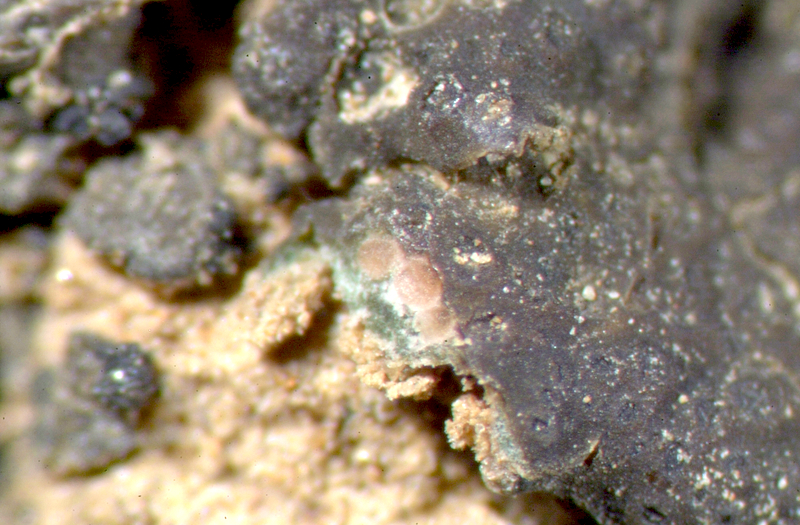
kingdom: Fungi
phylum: Ascomycota
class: Lichinomycetes
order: Lichinales
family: Peltulaceae
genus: Peltula
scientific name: Peltula coriacea
